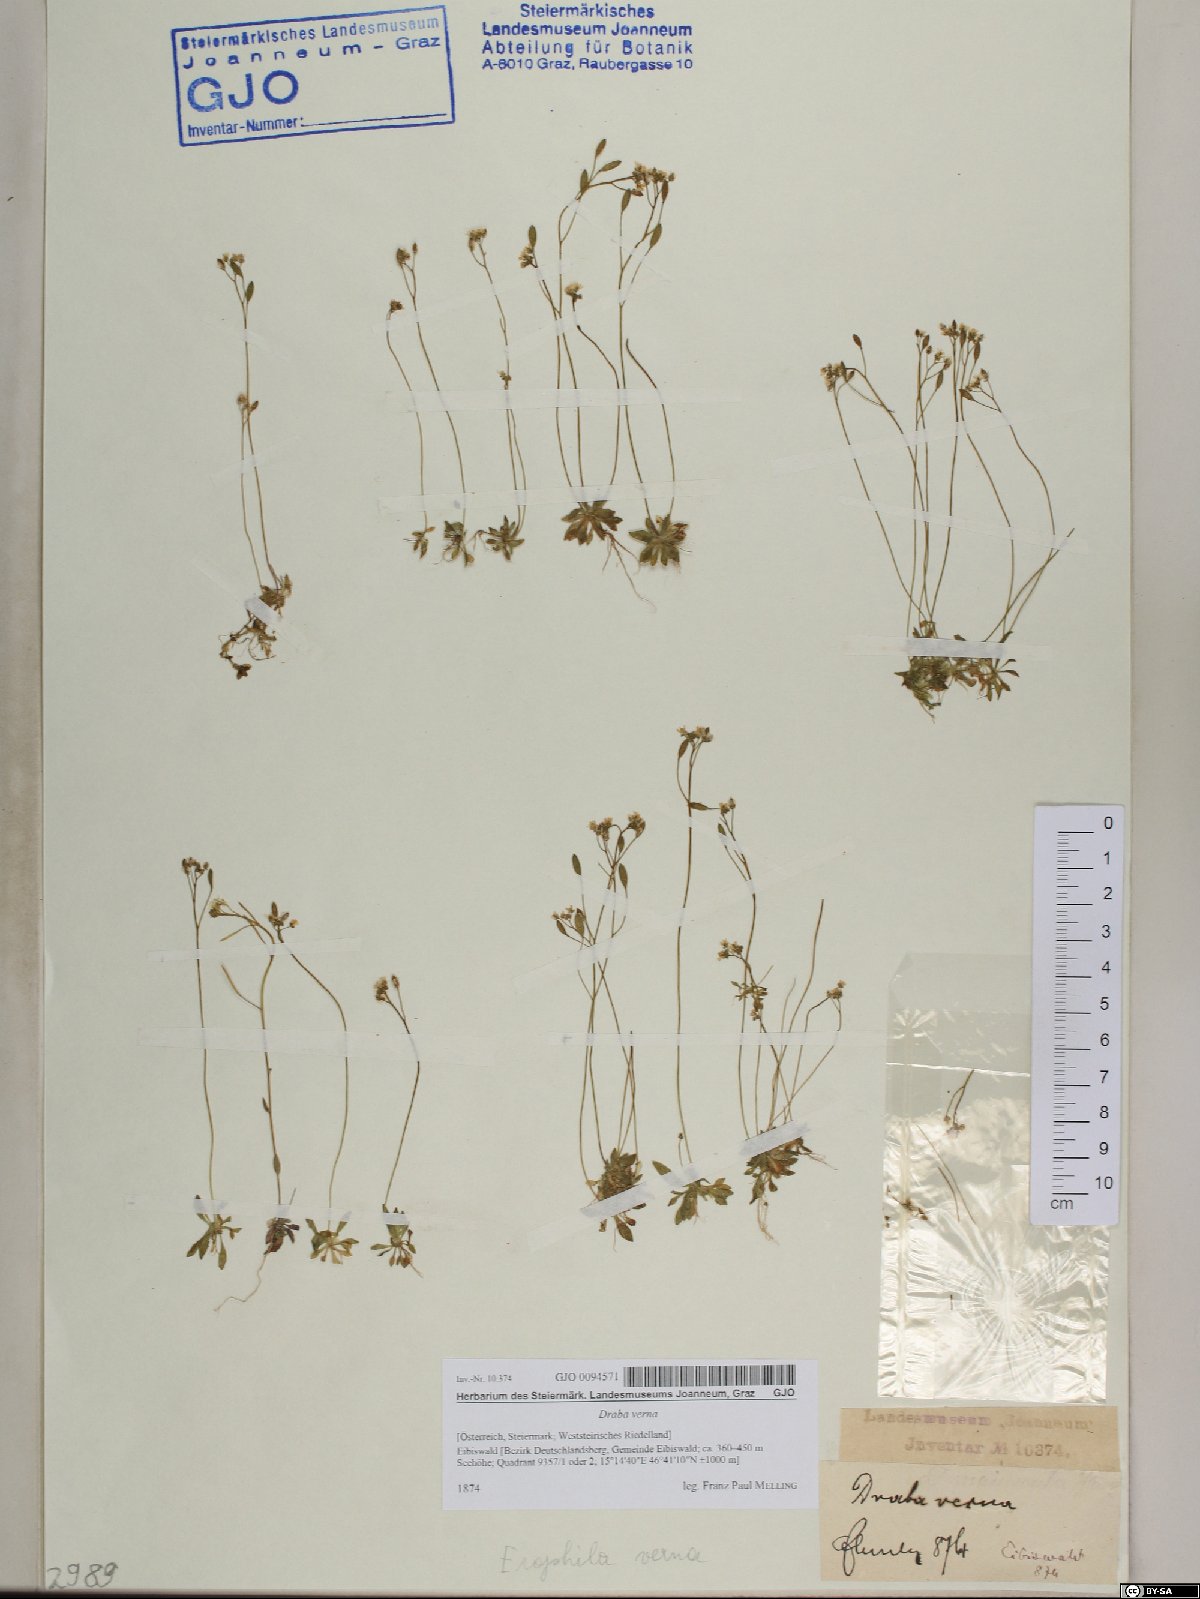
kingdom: Plantae
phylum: Tracheophyta
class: Magnoliopsida
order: Brassicales
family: Brassicaceae
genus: Draba
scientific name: Draba verna
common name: Spring draba
